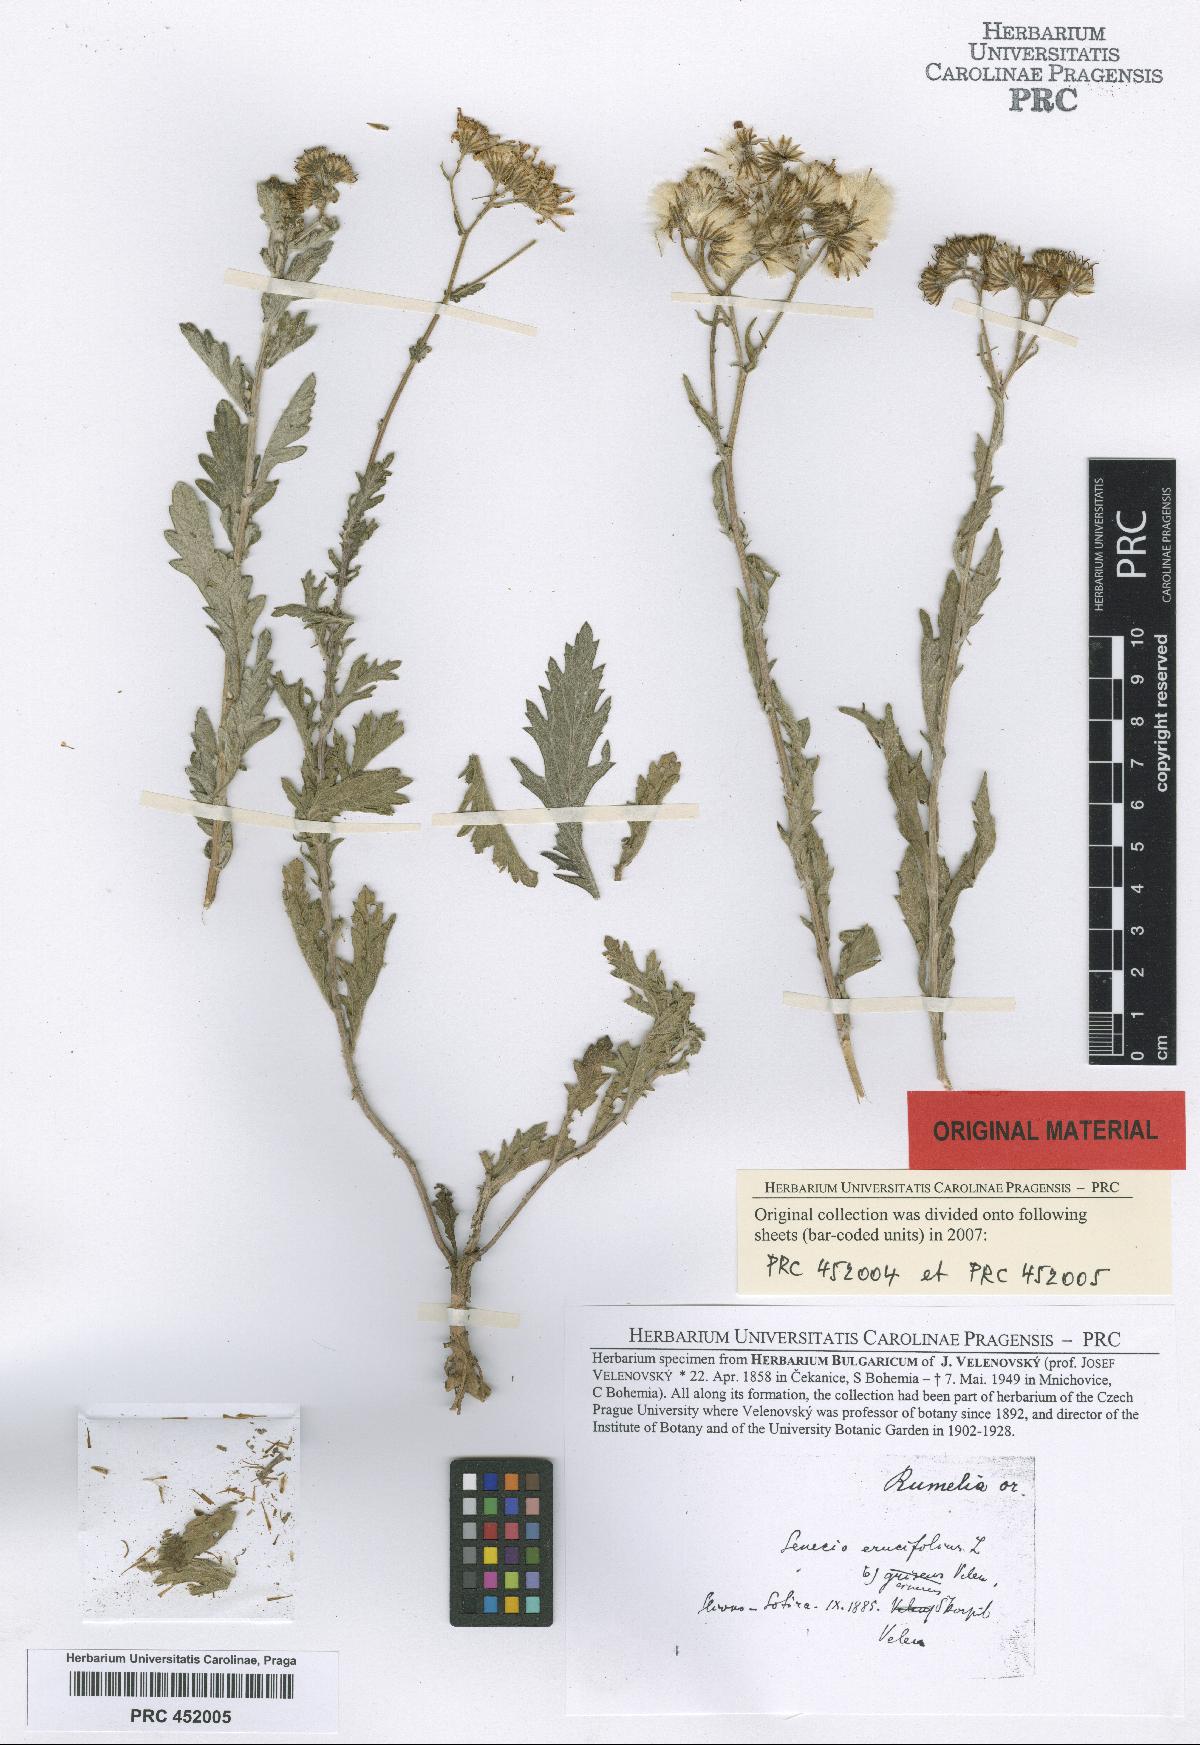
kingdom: Plantae
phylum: Tracheophyta
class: Magnoliopsida
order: Asterales
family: Asteraceae
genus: Jacobaea
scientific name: Jacobaea erucifolia
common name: Hoary ragwort
